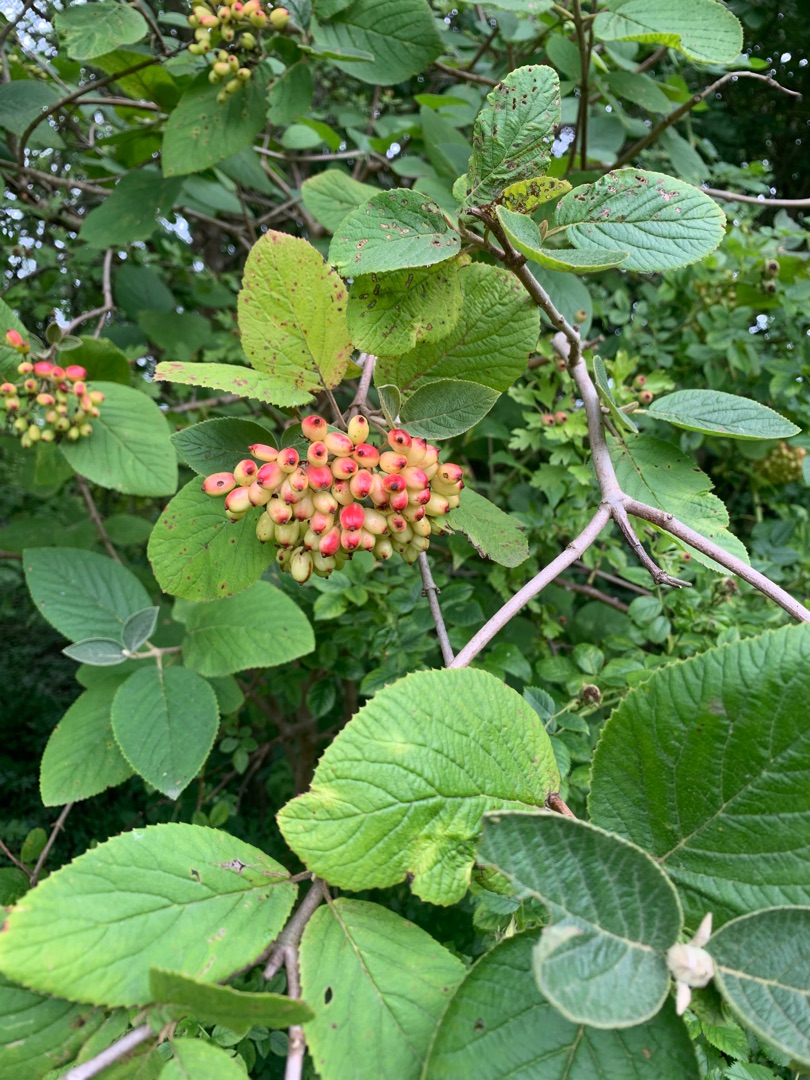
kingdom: Plantae
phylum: Tracheophyta
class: Magnoliopsida
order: Dipsacales
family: Viburnaceae
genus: Viburnum
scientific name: Viburnum lantana
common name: Pibe-kvalkved
